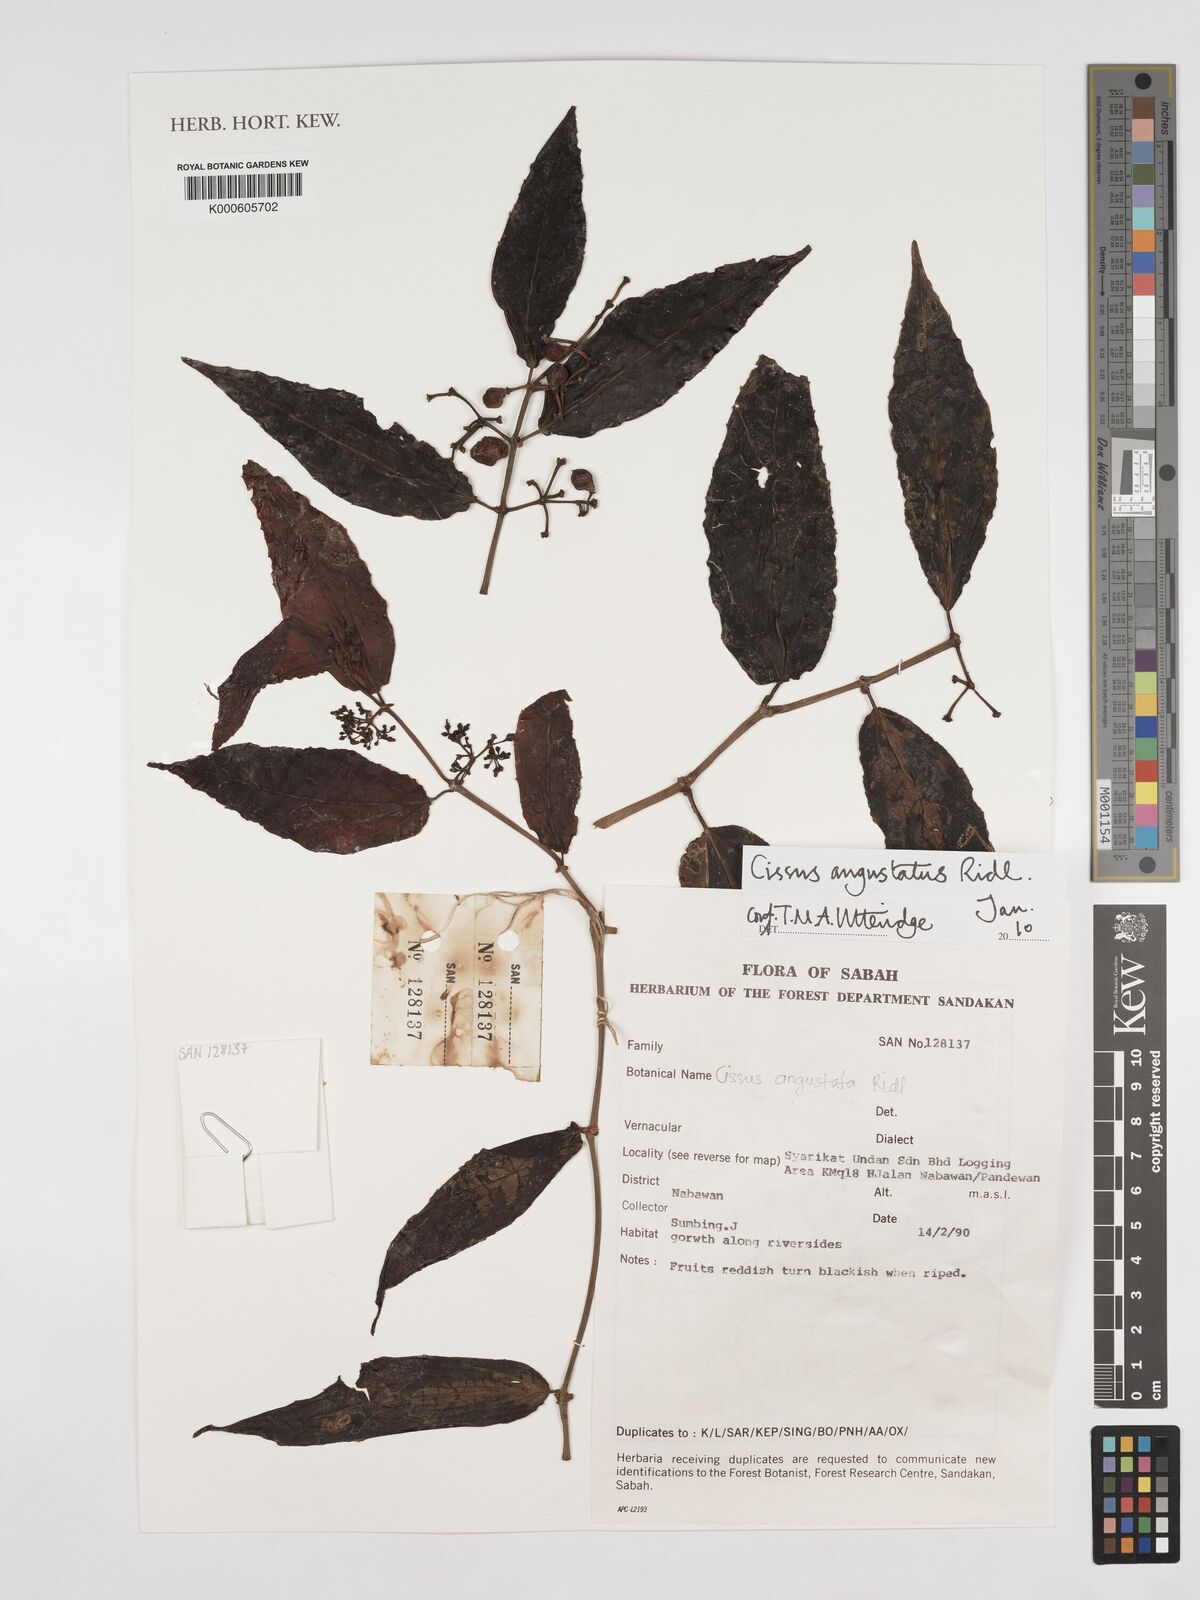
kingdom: Plantae
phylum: Tracheophyta
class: Magnoliopsida
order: Vitales
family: Vitaceae
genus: Cissus
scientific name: Cissus angustata
